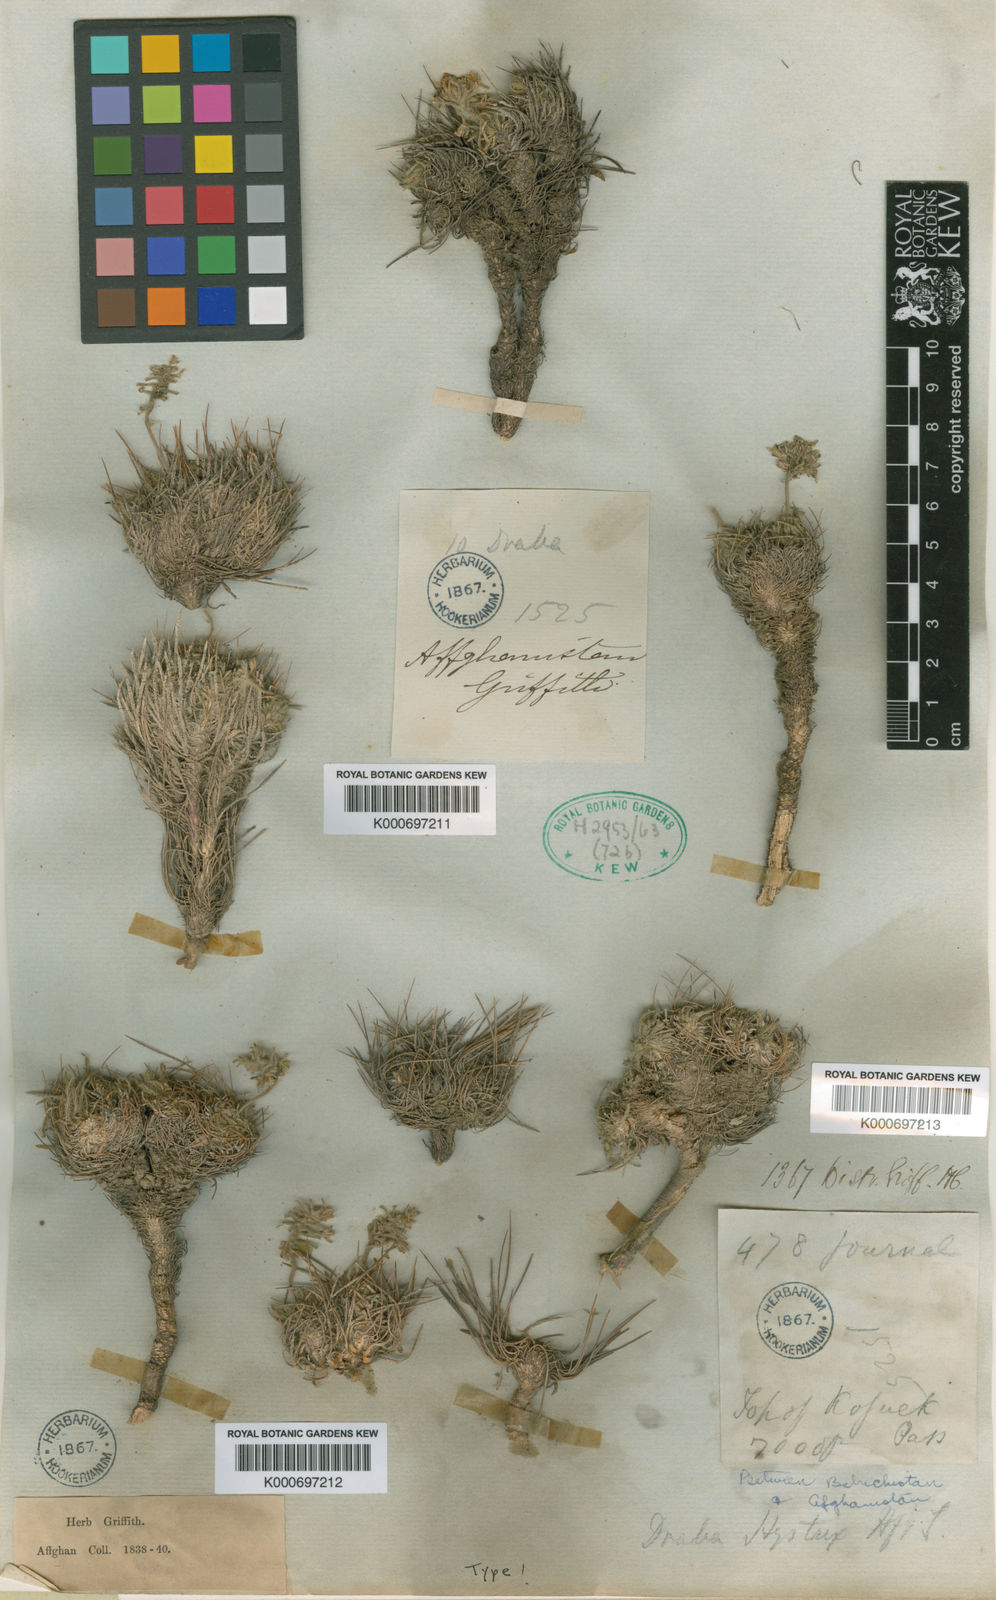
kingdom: Plantae
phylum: Tracheophyta
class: Magnoliopsida
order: Brassicales
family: Brassicaceae
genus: Pseudodraba
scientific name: Pseudodraba
